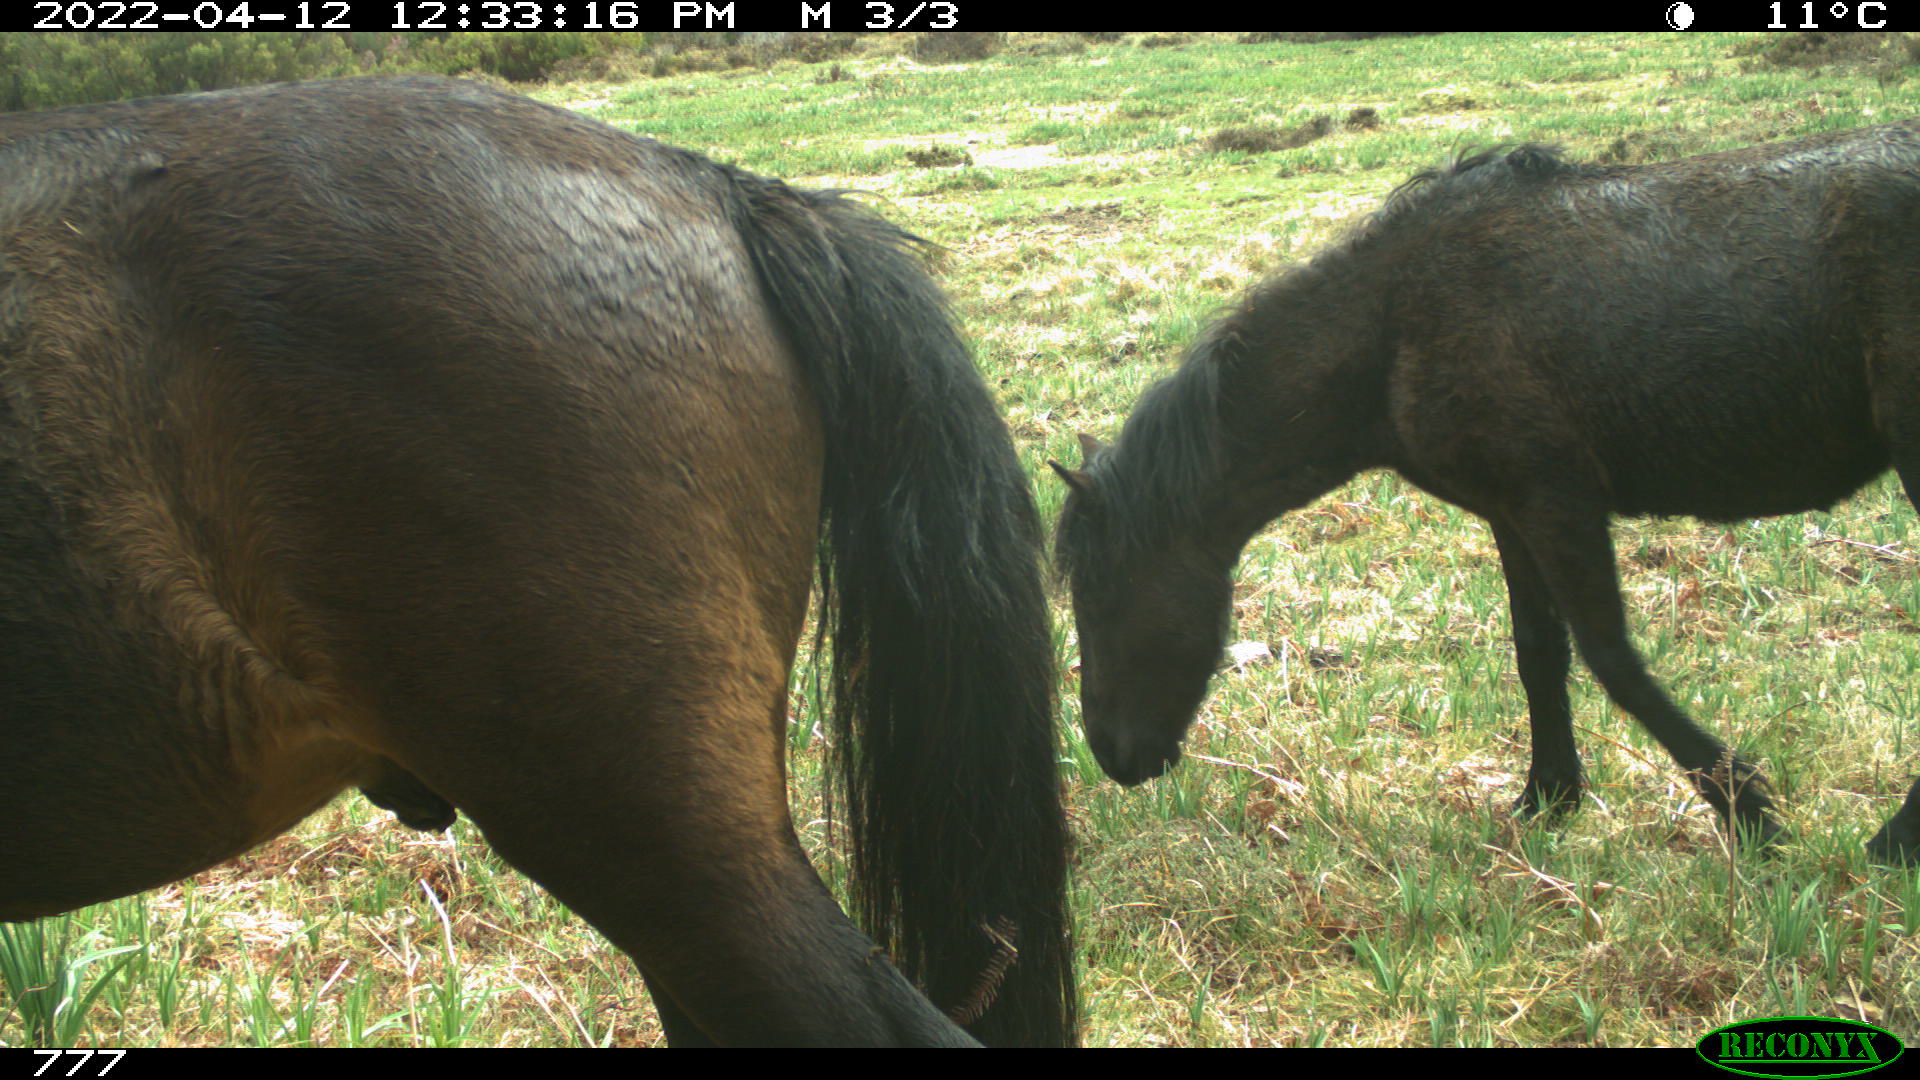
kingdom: Animalia
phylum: Chordata
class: Mammalia
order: Perissodactyla
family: Equidae
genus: Equus
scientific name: Equus caballus
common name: Horse
